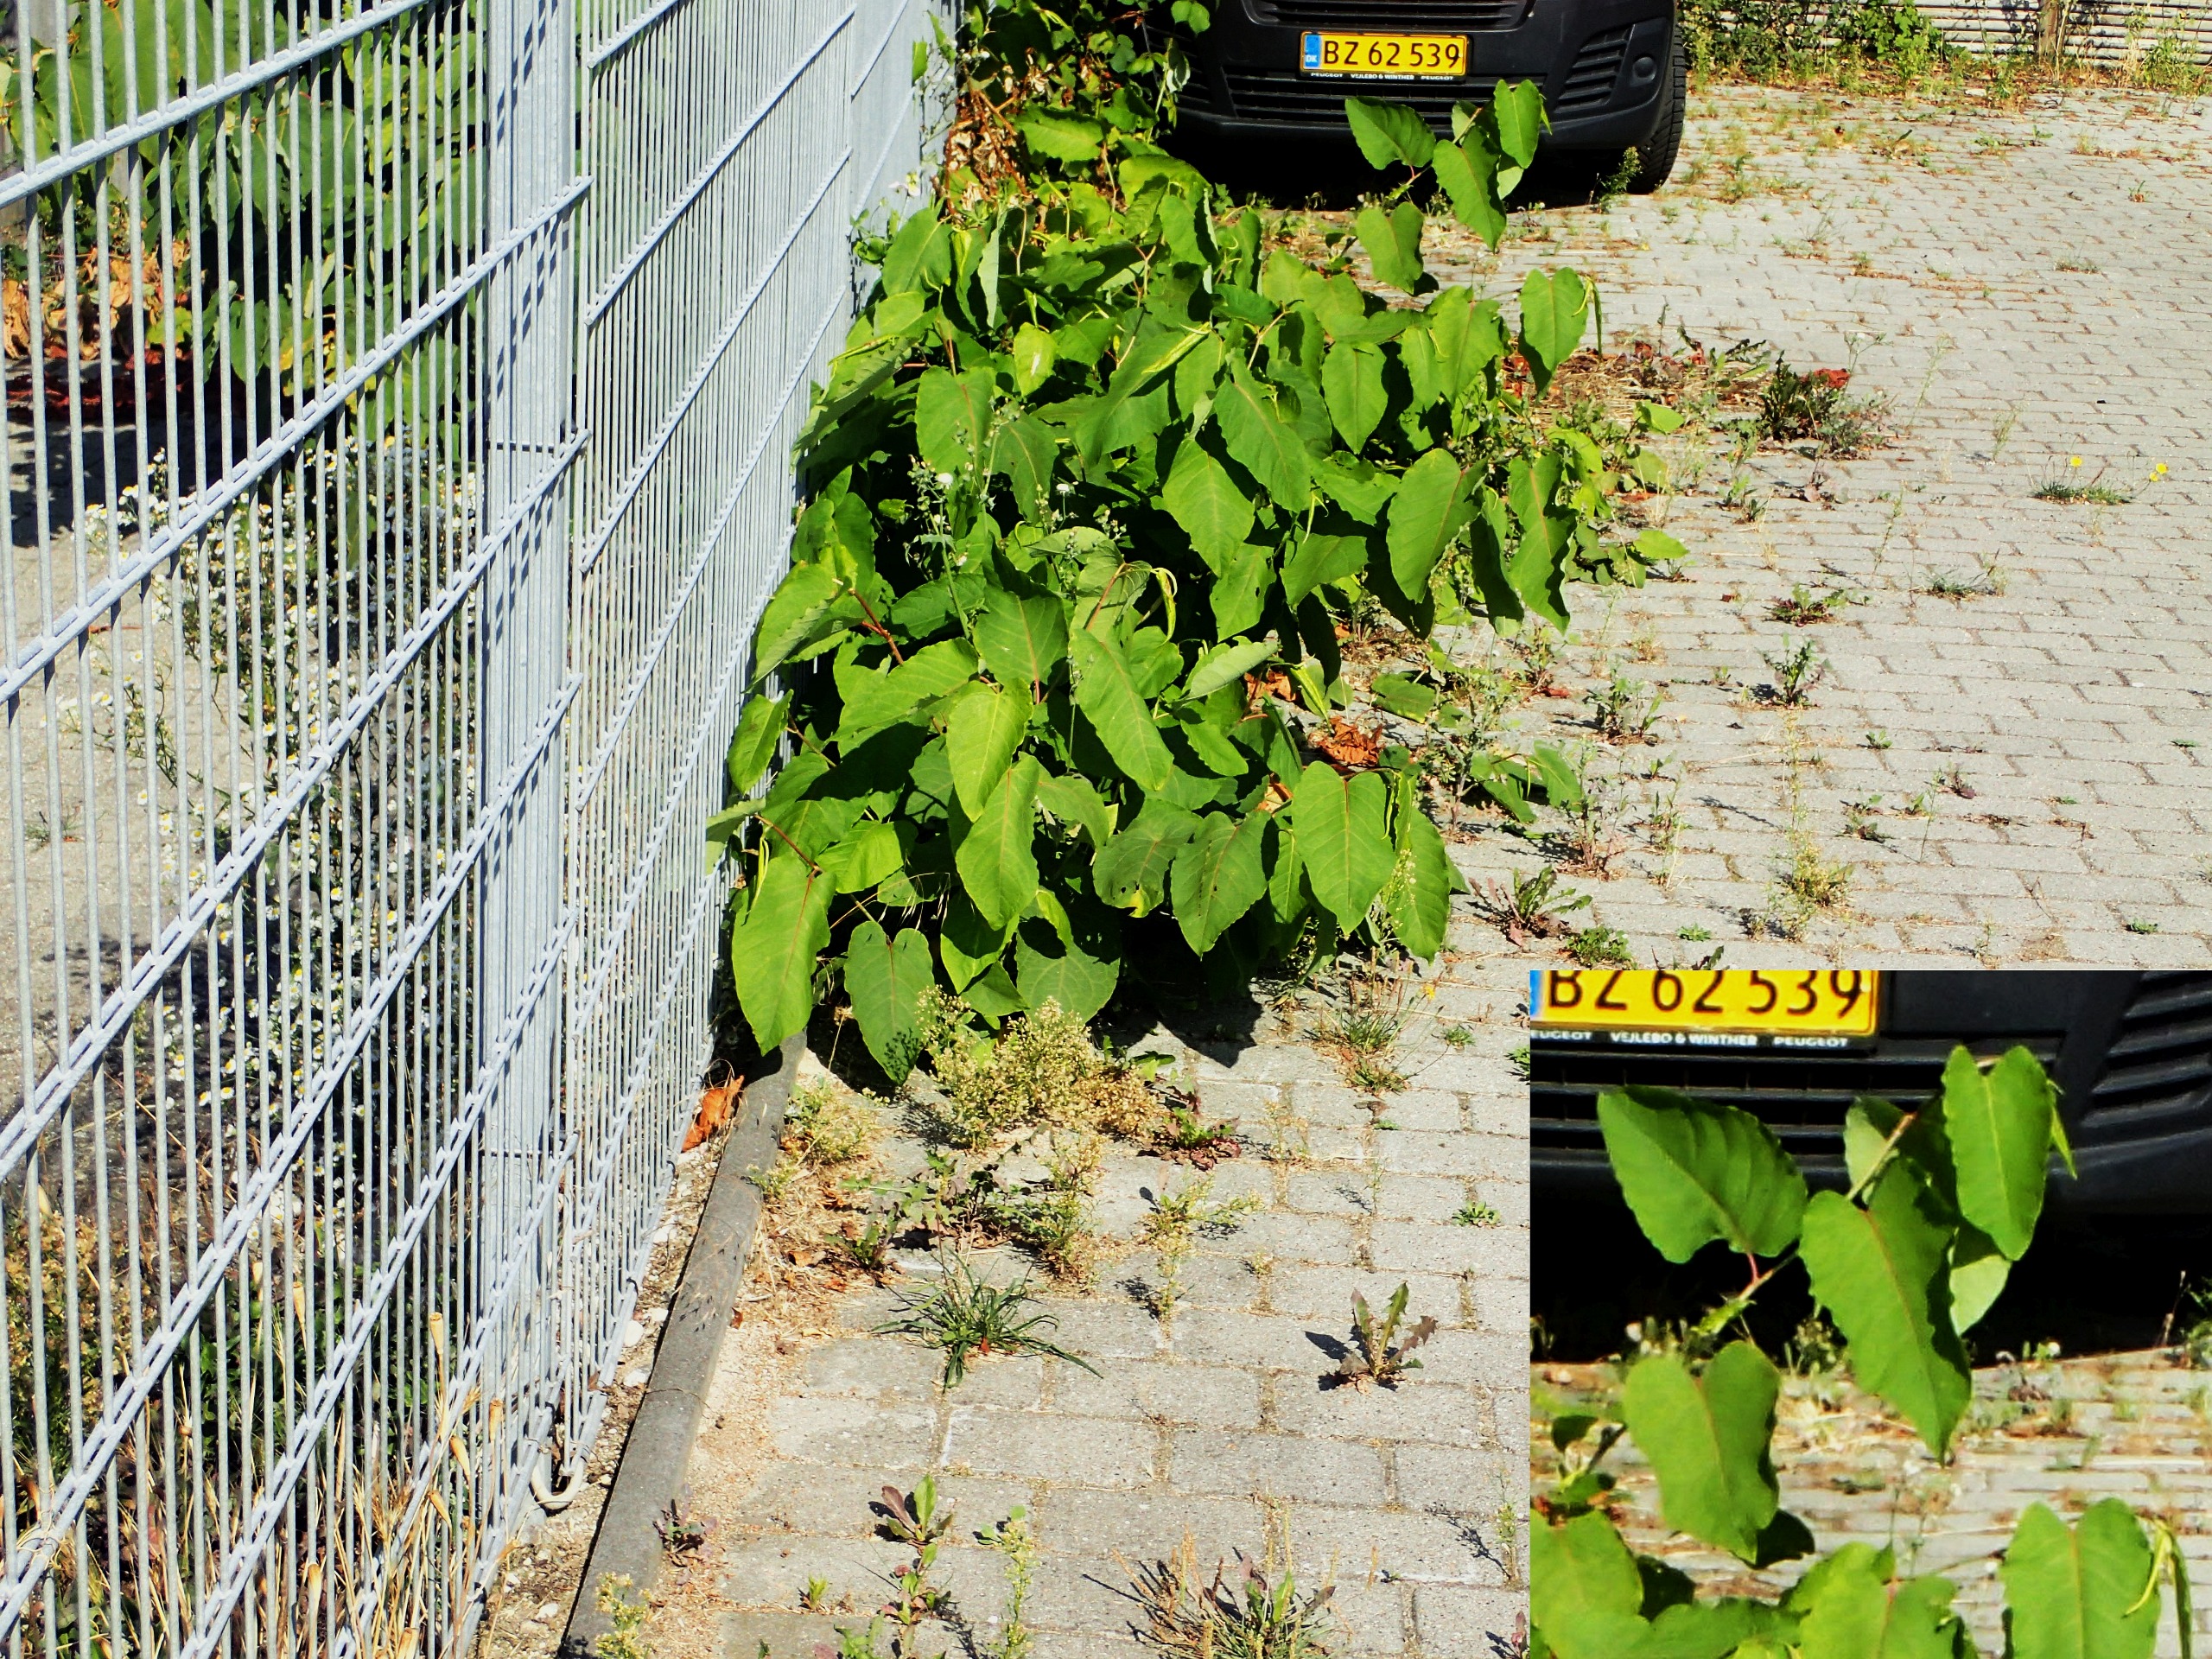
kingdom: Plantae
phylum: Tracheophyta
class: Magnoliopsida
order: Caryophyllales
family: Polygonaceae
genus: Reynoutria
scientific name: Reynoutria sachalinensis
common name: Kæmpe-pileurt
